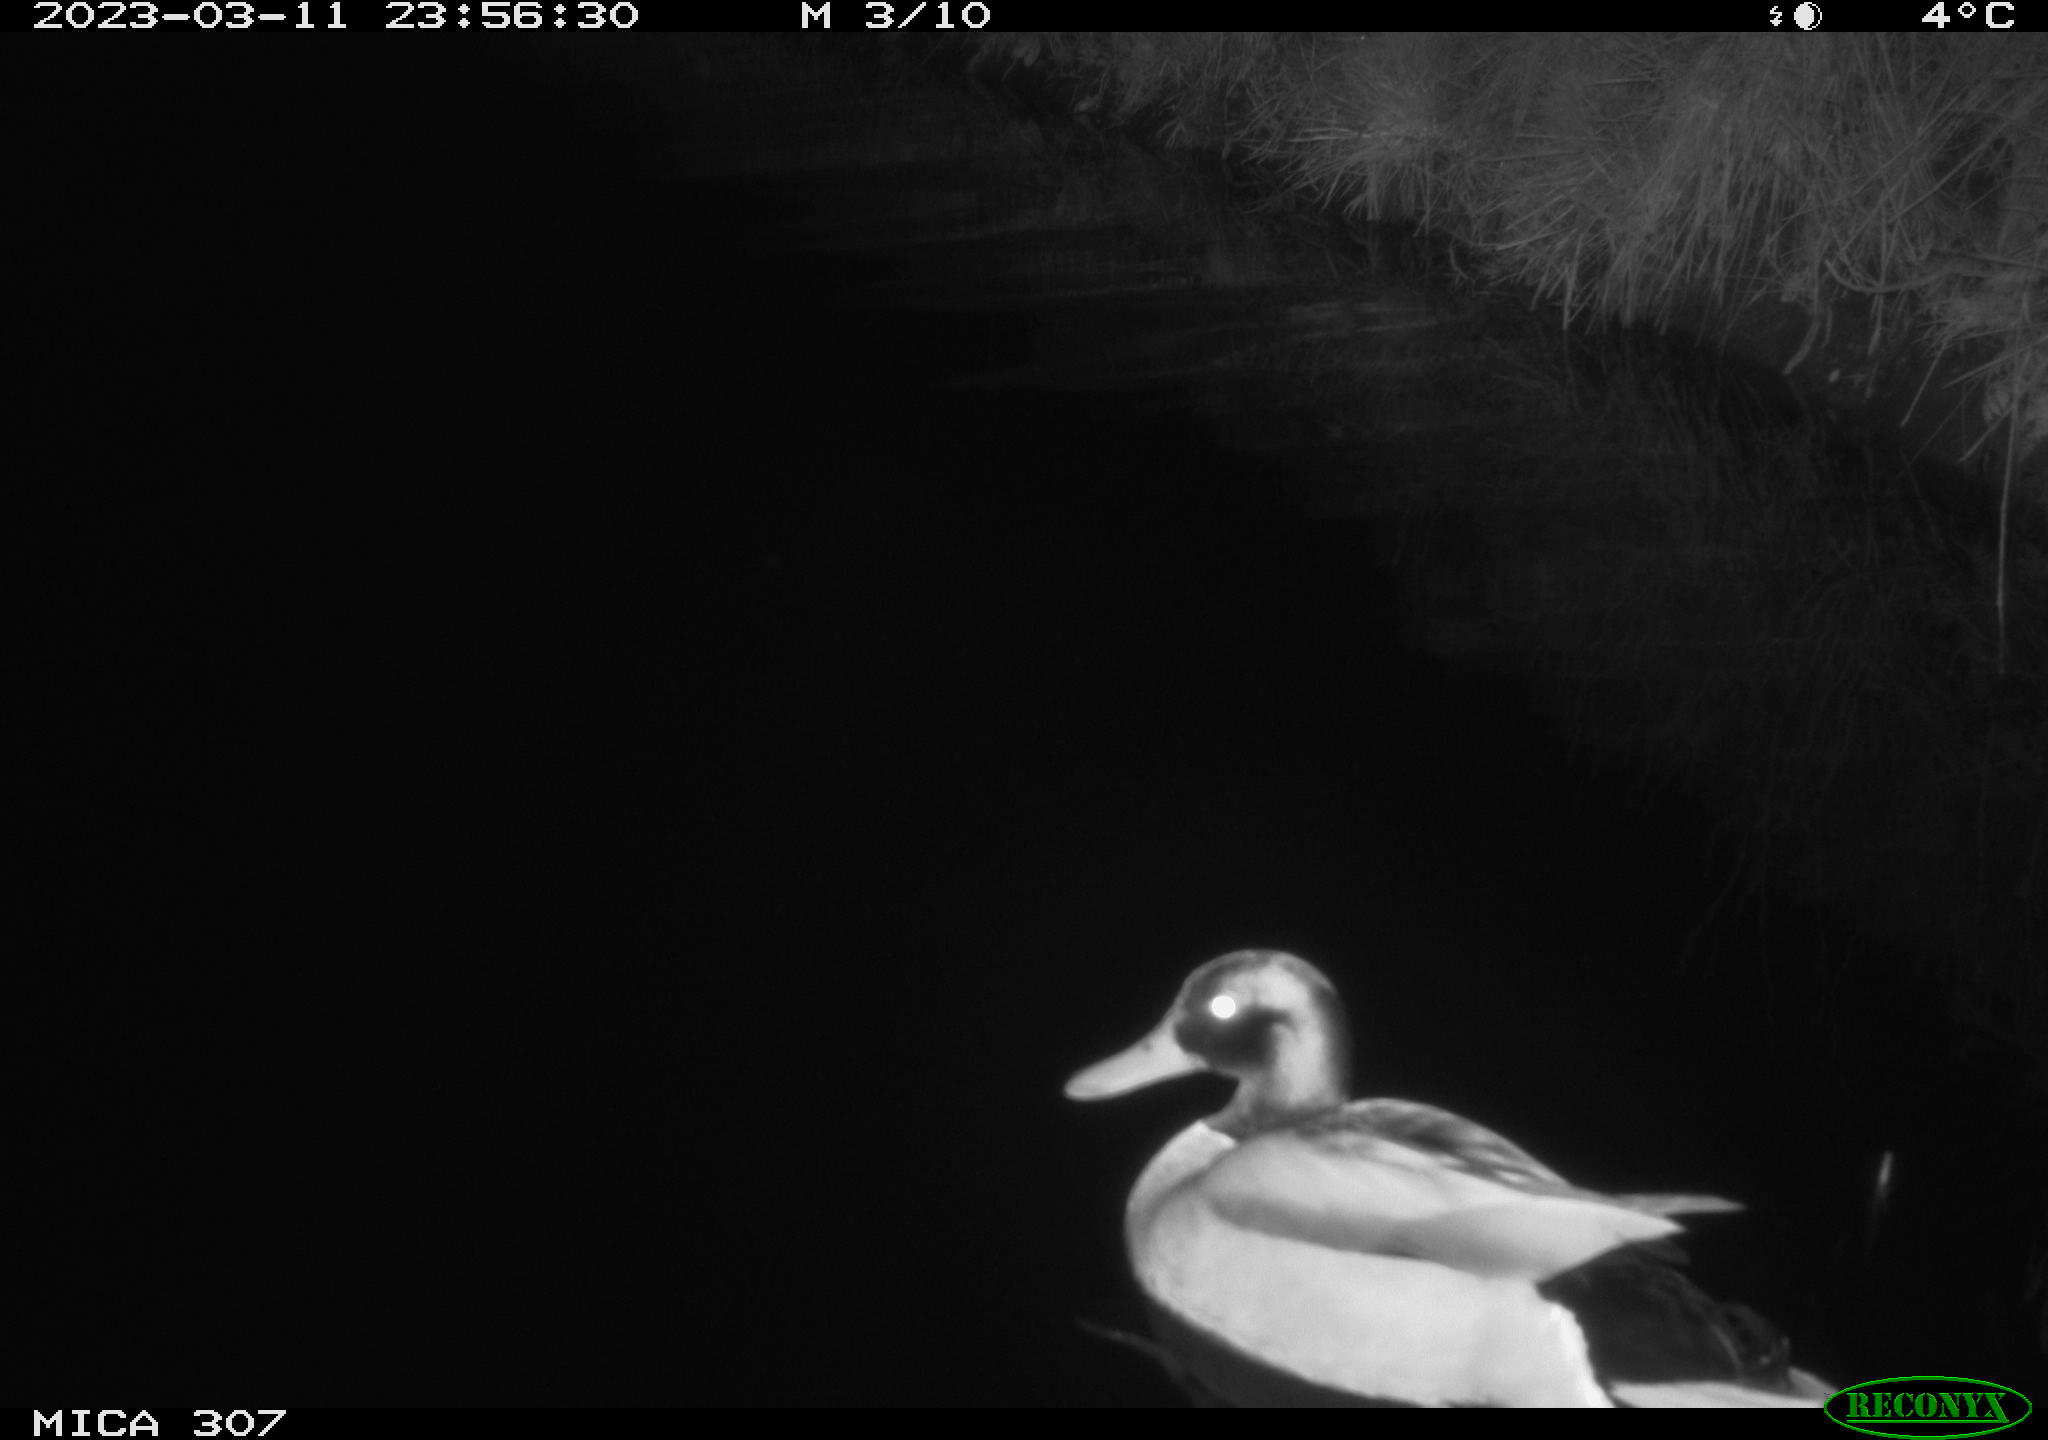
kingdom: Animalia
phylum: Chordata
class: Aves
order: Anseriformes
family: Anatidae
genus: Anas
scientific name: Anas
